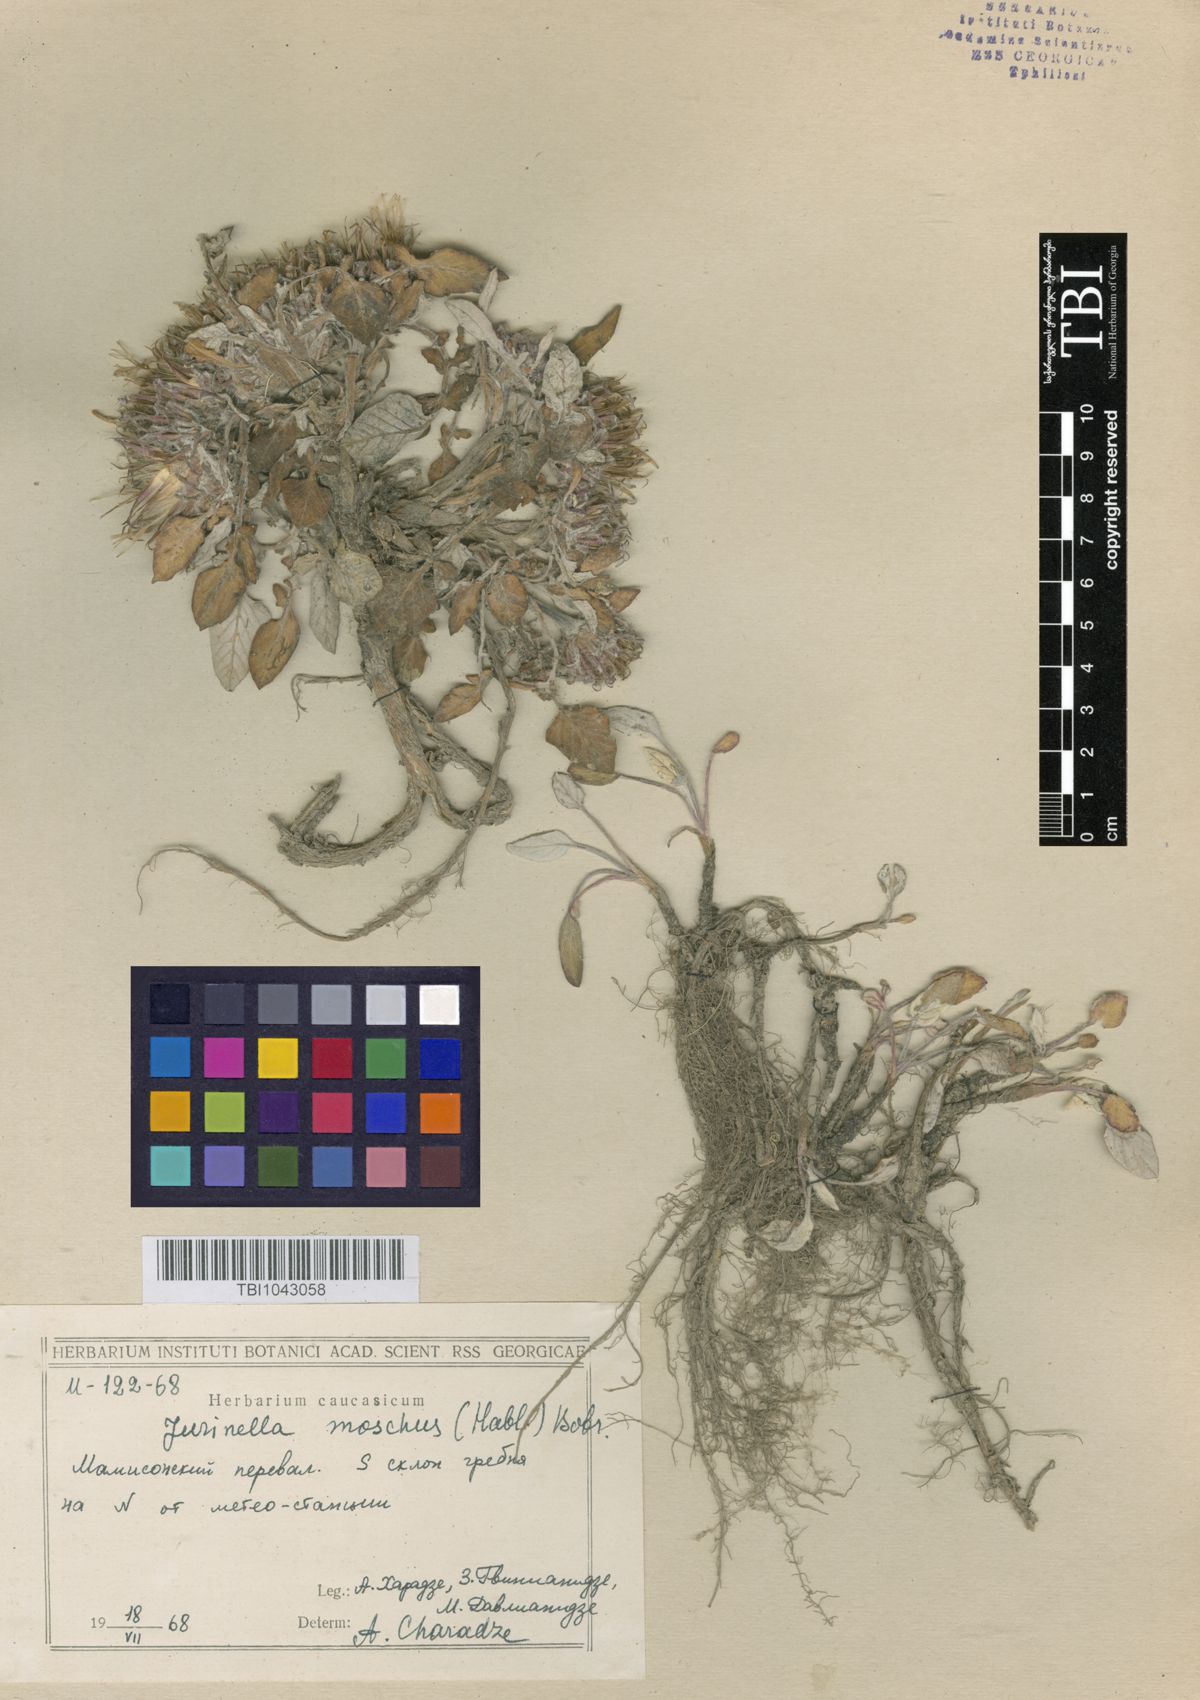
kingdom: Plantae
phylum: Tracheophyta
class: Magnoliopsida
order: Asterales
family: Asteraceae
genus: Jurinea
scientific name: Jurinea moschus
